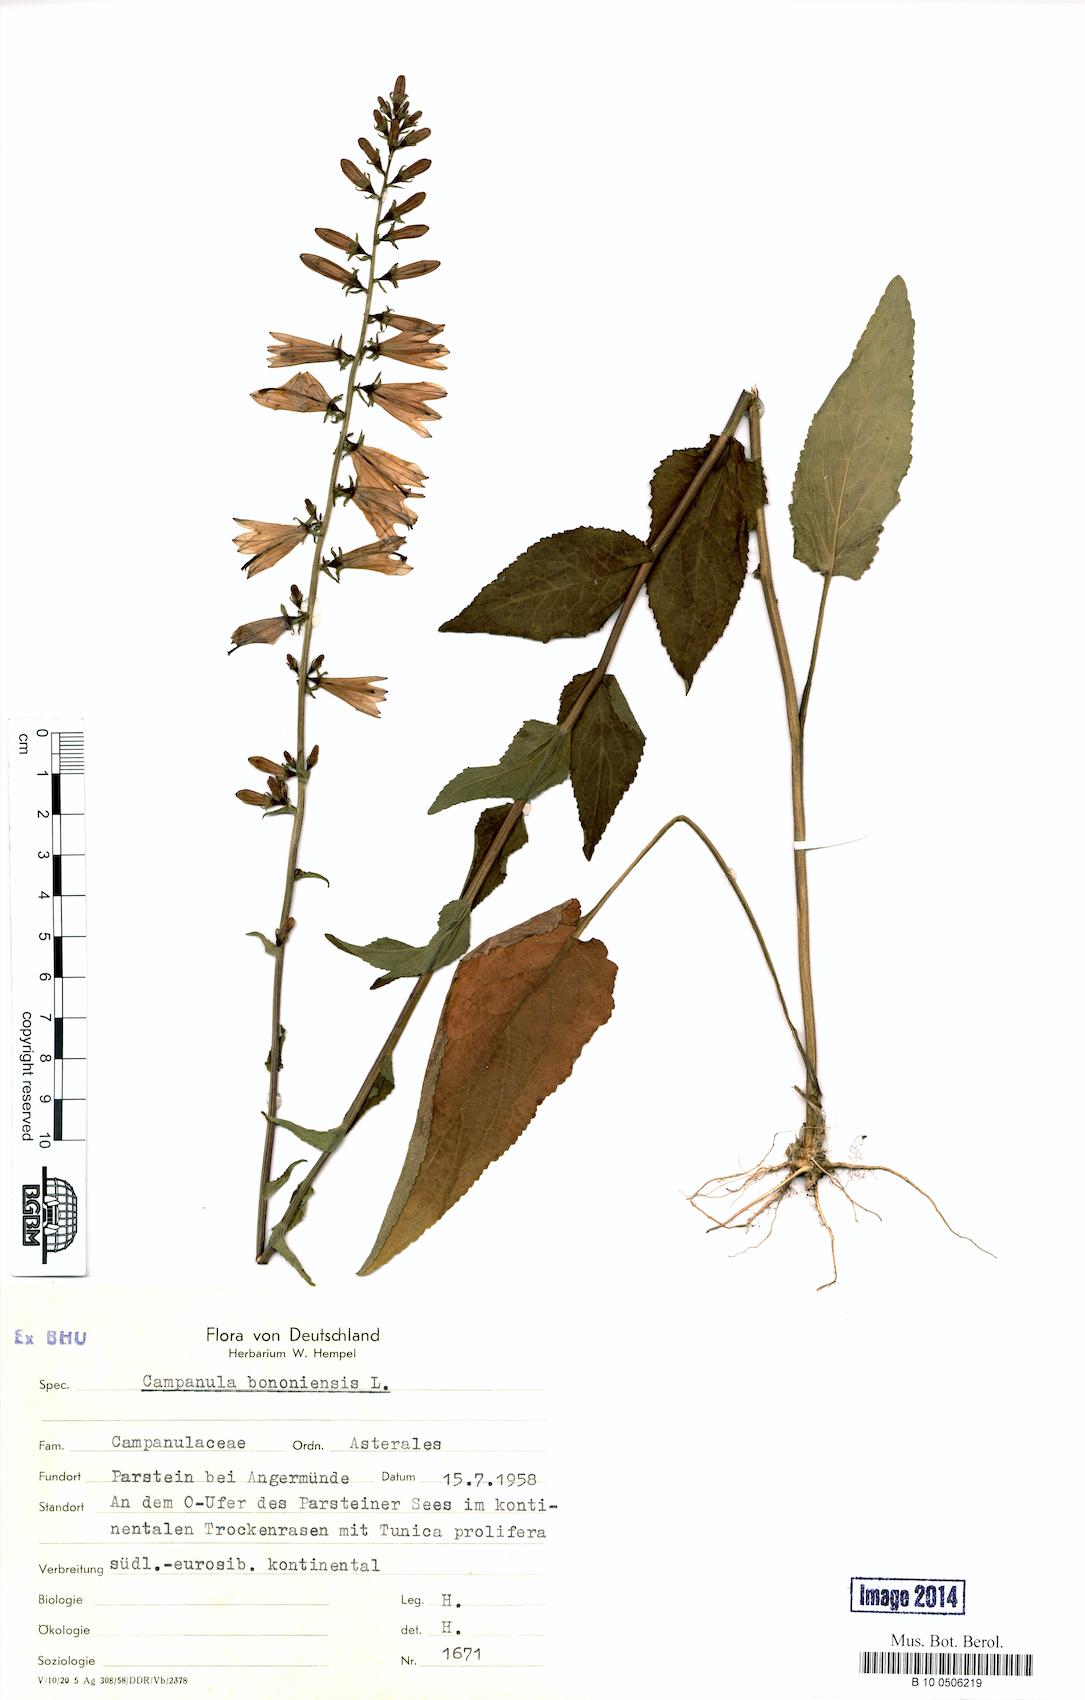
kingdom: Plantae
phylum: Tracheophyta
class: Magnoliopsida
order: Asterales
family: Campanulaceae
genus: Campanula
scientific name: Campanula bononiensis
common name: Pale bellflower
